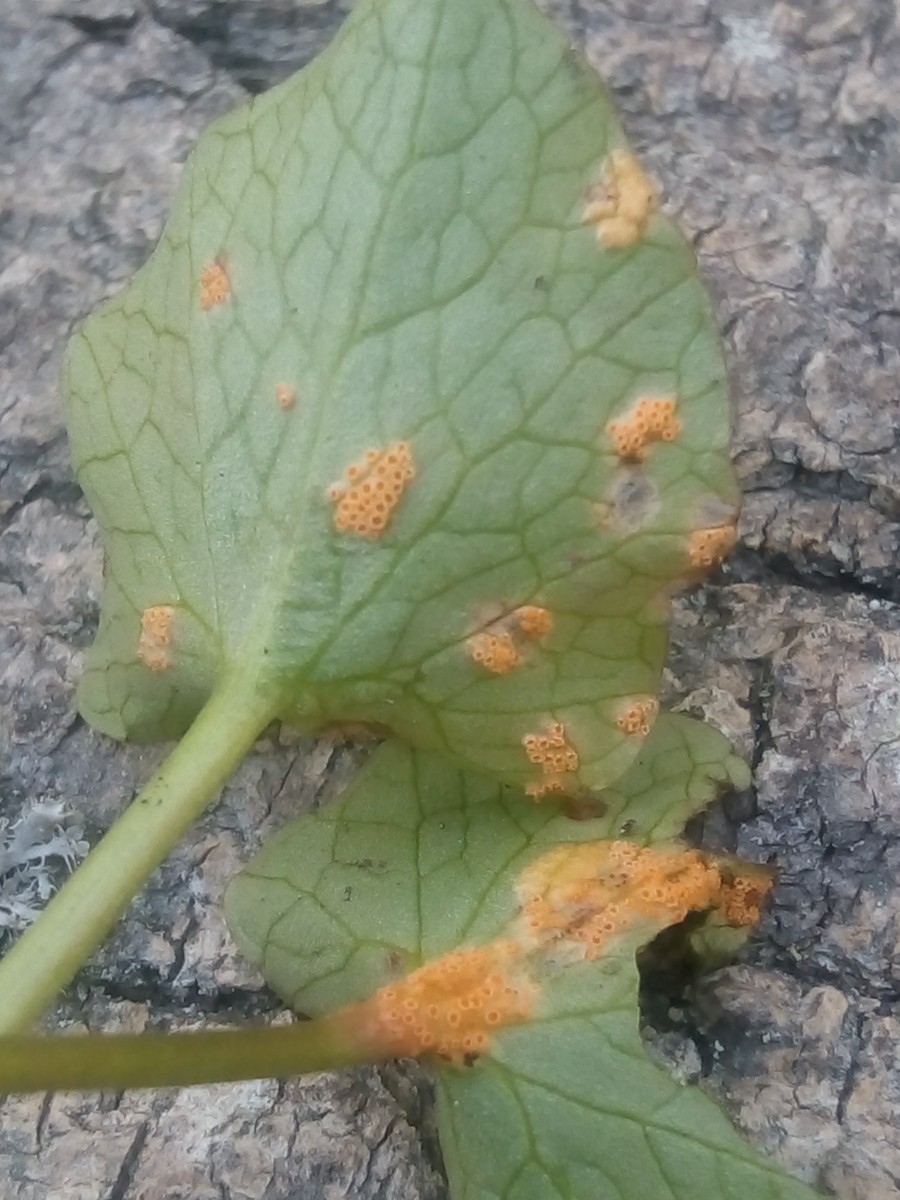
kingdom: Fungi
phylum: Basidiomycota
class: Pucciniomycetes
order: Pucciniales
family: Pucciniaceae
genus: Uromyces
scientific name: Uromyces dactylidis
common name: ranunkel-encellerust
